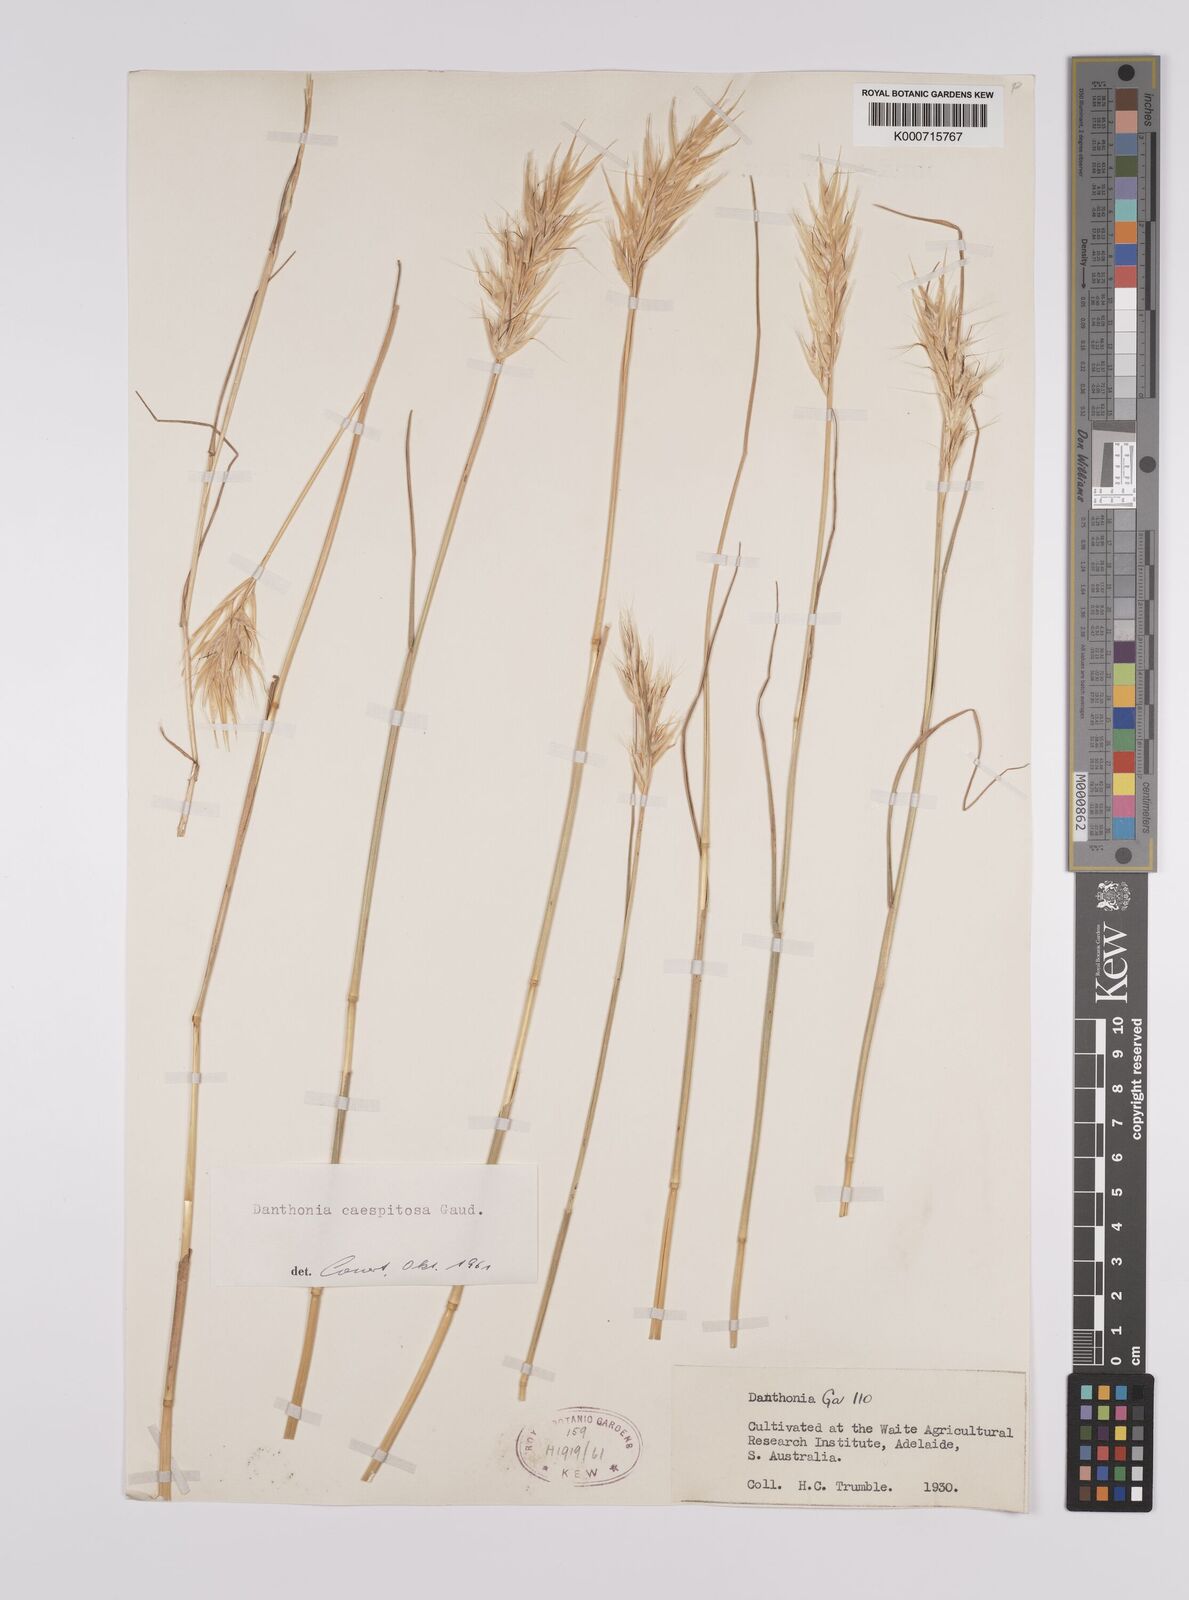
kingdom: Plantae
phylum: Tracheophyta
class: Liliopsida
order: Poales
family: Poaceae
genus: Rytidosperma
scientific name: Rytidosperma caespitosum
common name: Tufted wallaby grass
